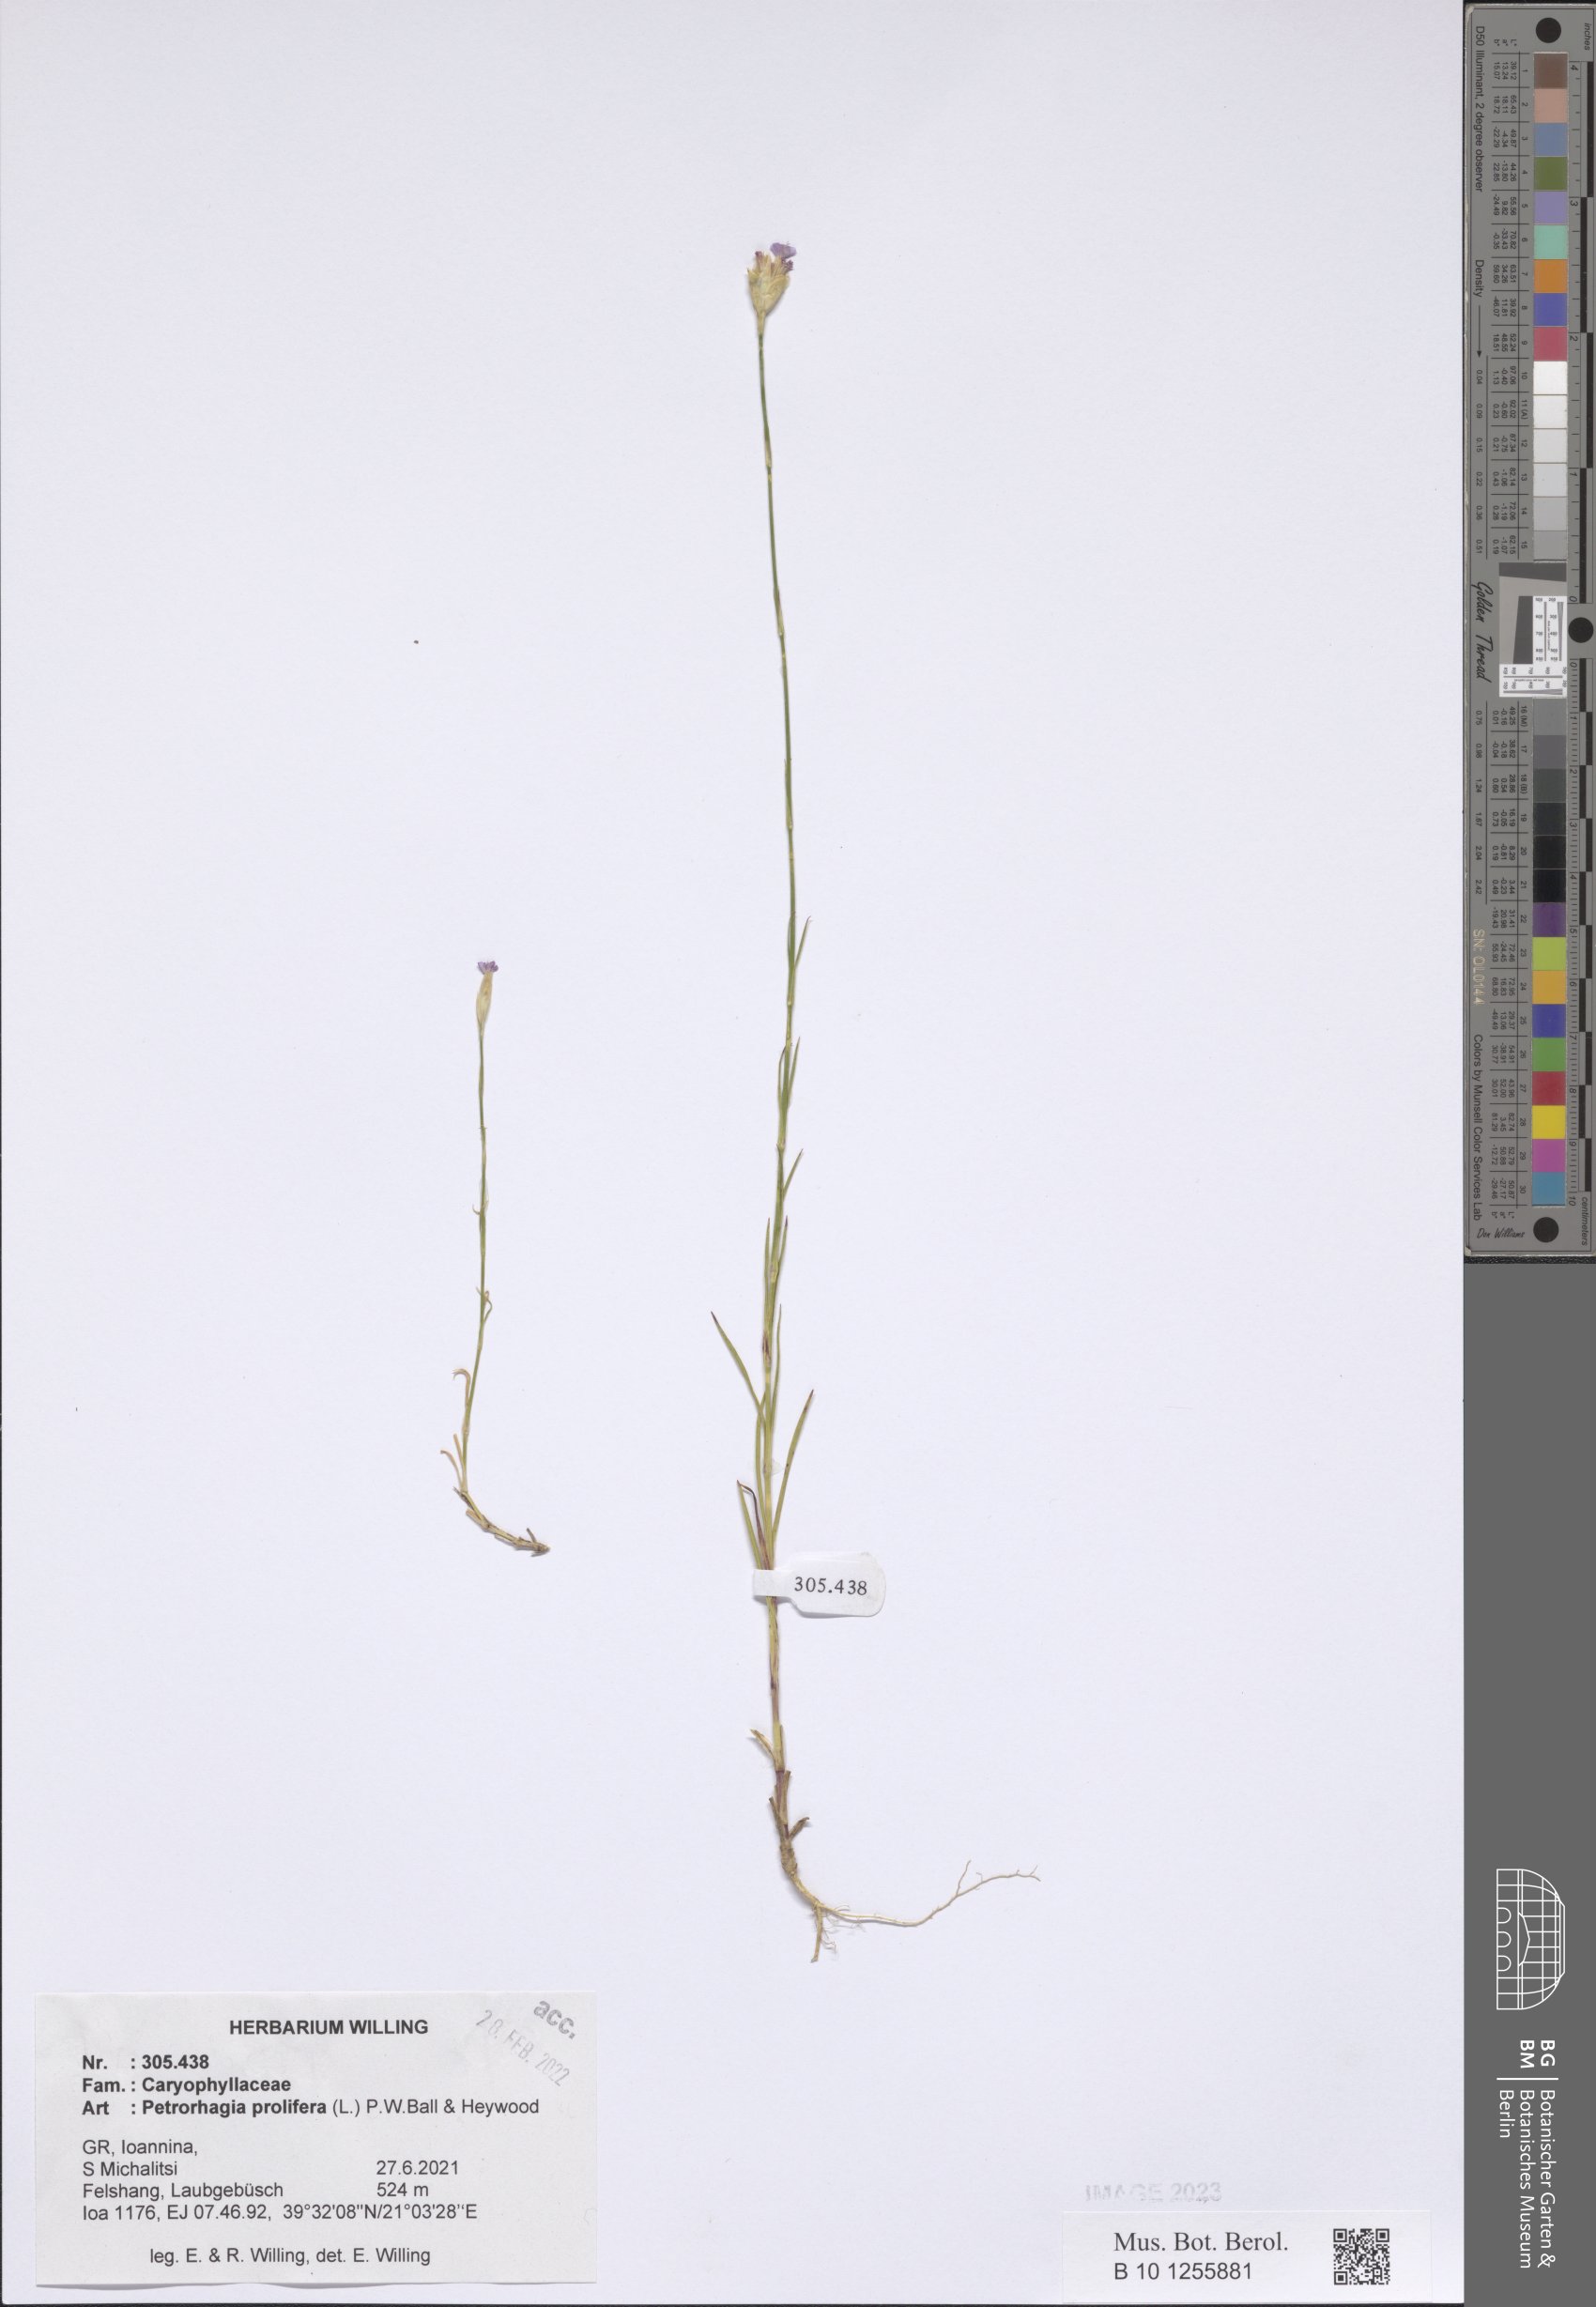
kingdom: Plantae
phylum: Tracheophyta
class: Magnoliopsida
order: Caryophyllales
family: Caryophyllaceae
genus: Petrorhagia
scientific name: Petrorhagia prolifera
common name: Proliferous pink
